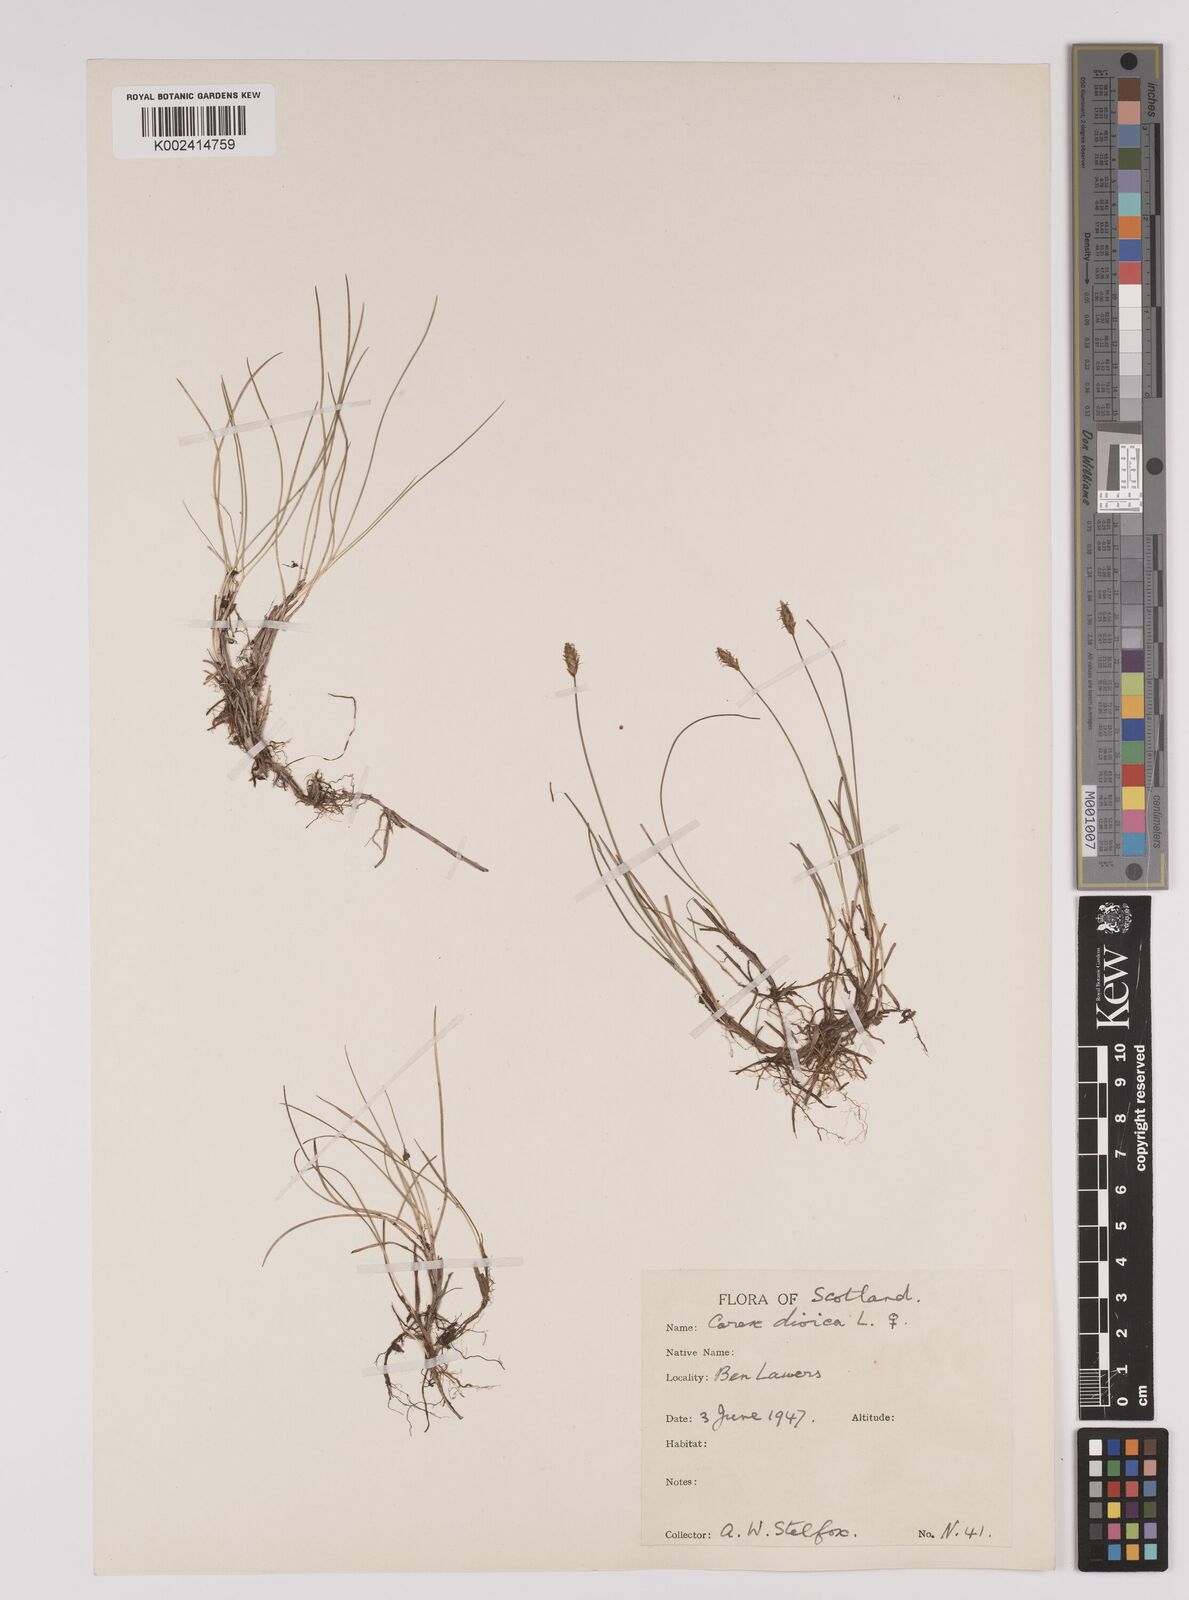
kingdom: Plantae
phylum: Tracheophyta
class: Liliopsida
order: Poales
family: Cyperaceae
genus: Carex
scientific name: Carex dioica
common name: Dioecious sedge
